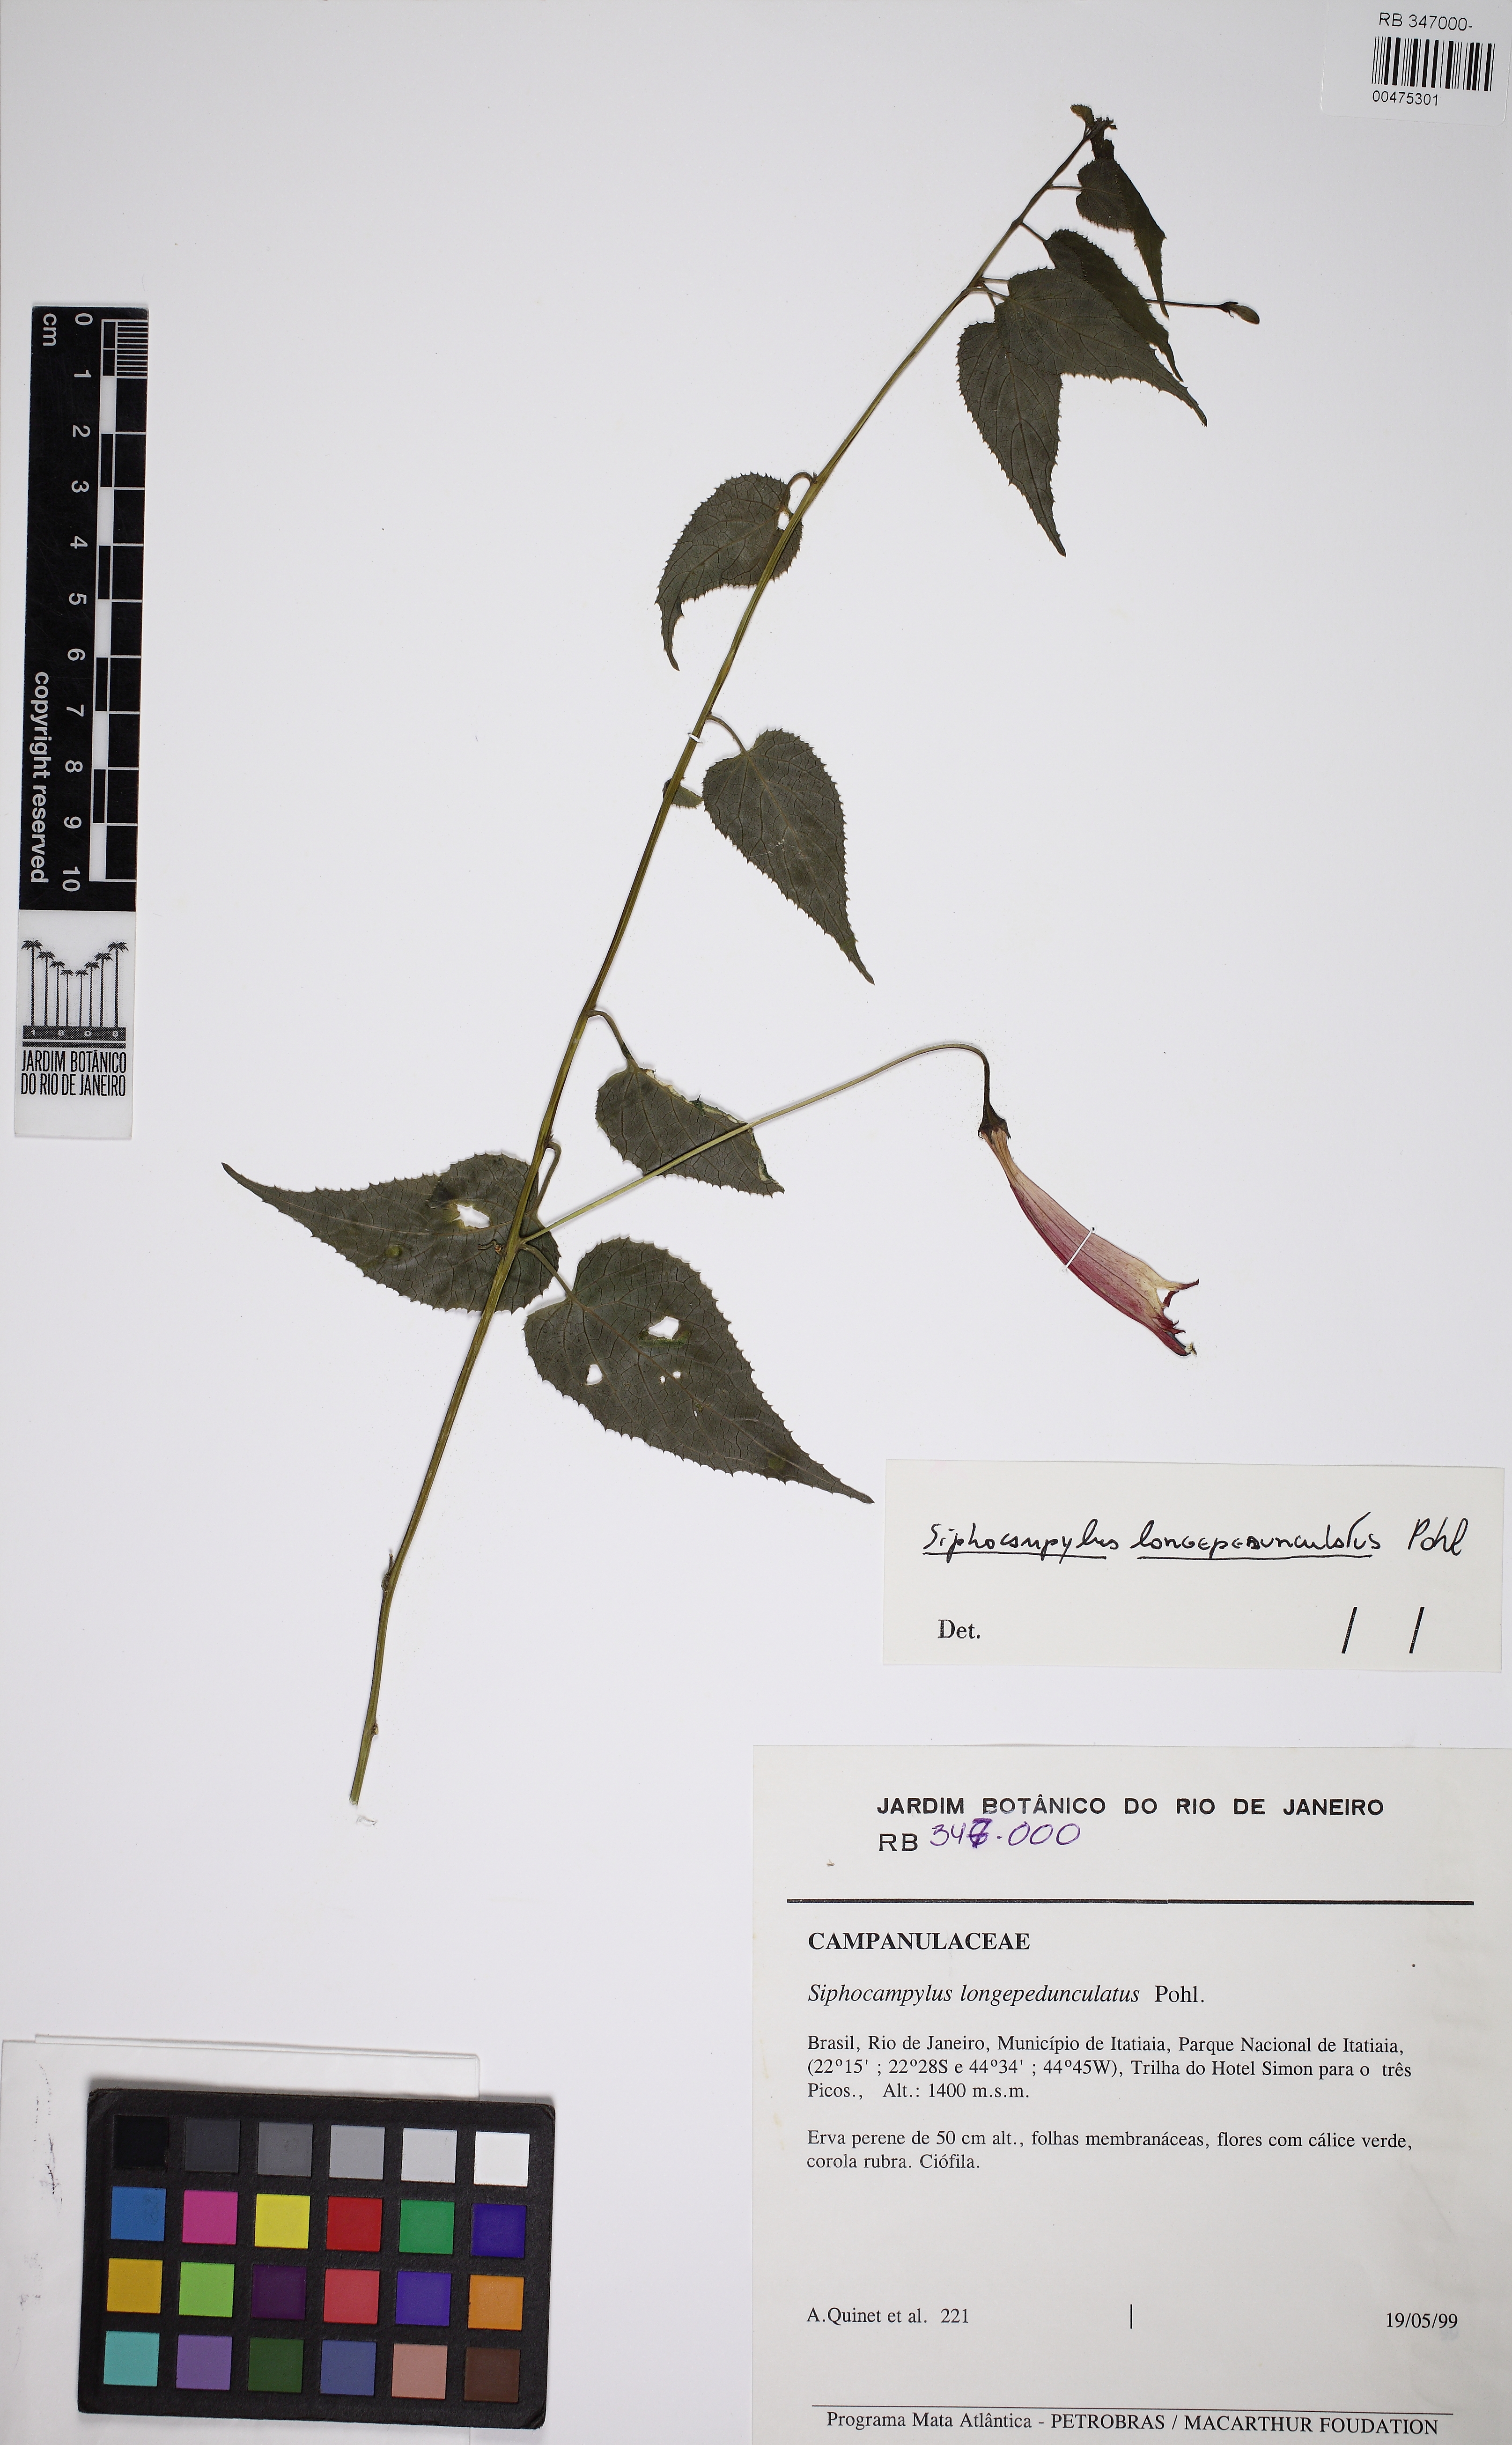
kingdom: Plantae
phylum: Tracheophyta
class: Magnoliopsida
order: Asterales
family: Campanulaceae
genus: Siphocampylus
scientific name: Siphocampylus longipedunculatus
